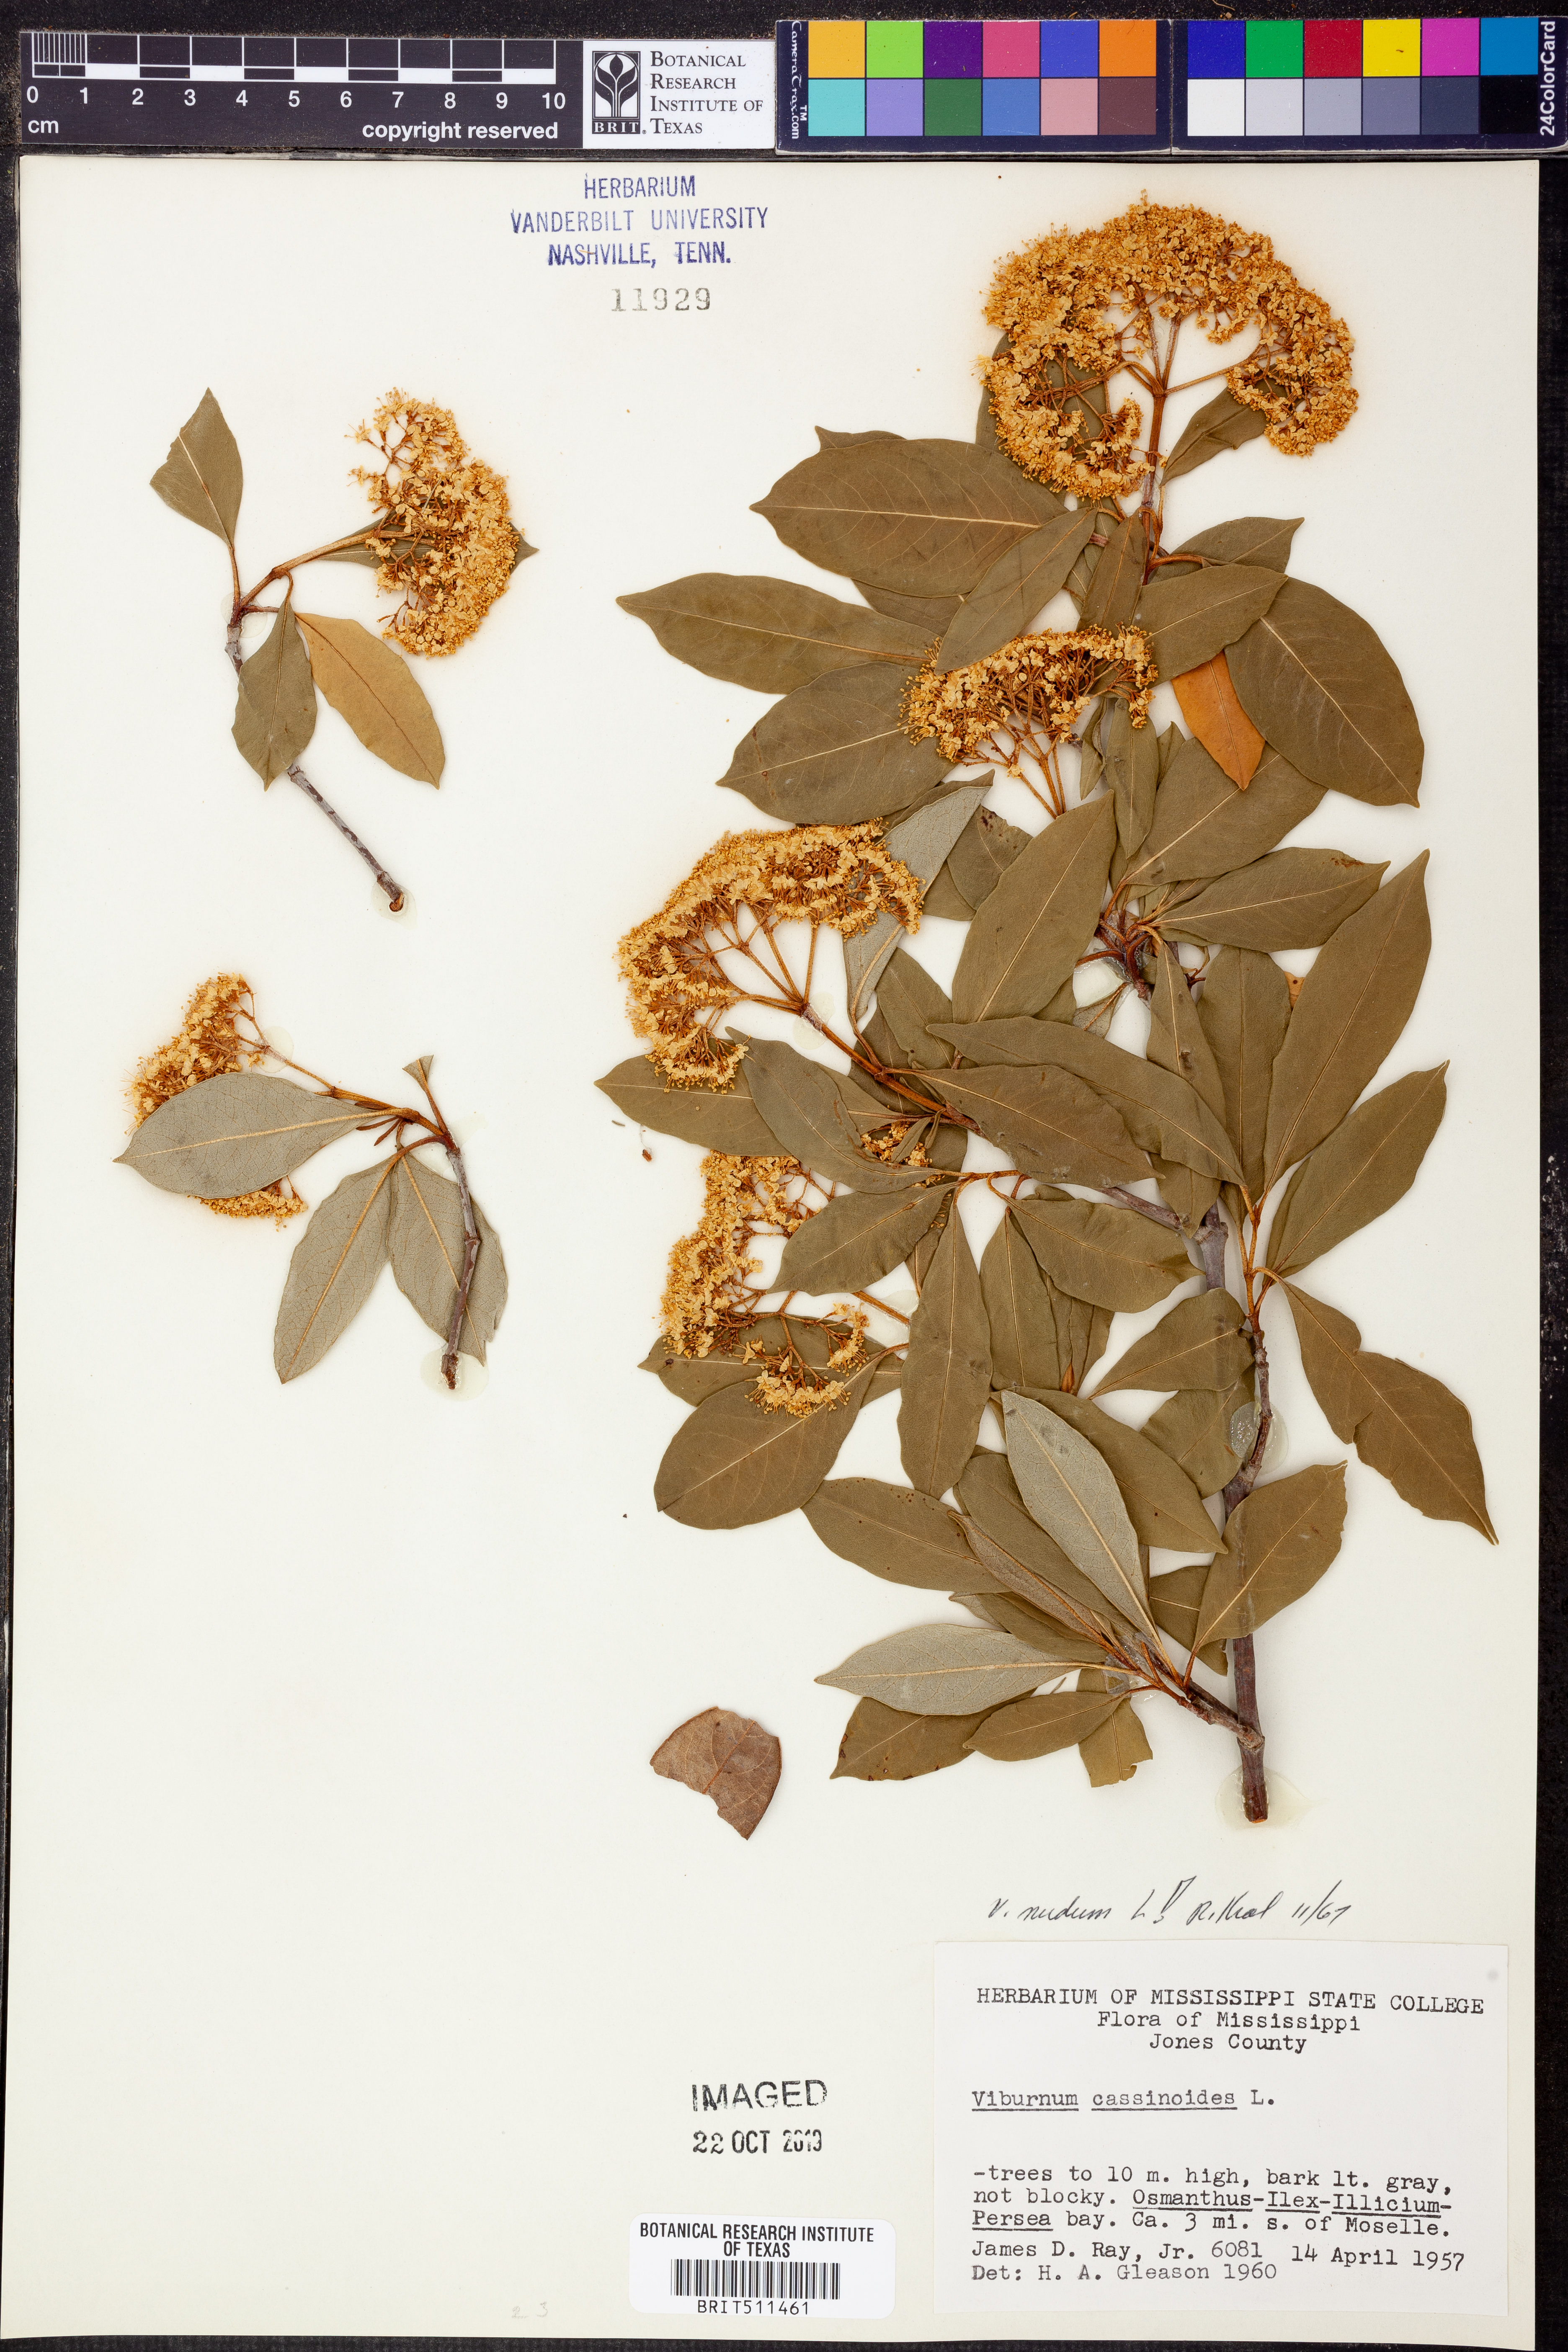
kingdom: Plantae
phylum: Tracheophyta
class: Magnoliopsida
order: Dipsacales
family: Viburnaceae
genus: Viburnum
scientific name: Viburnum nudum
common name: Possum haw
